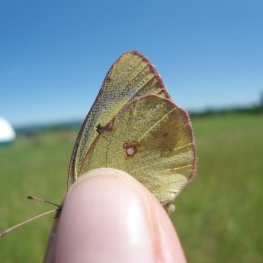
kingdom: Animalia
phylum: Arthropoda
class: Insecta
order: Lepidoptera
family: Pieridae
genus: Colias
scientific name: Colias philodice
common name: Clouded Sulphur
